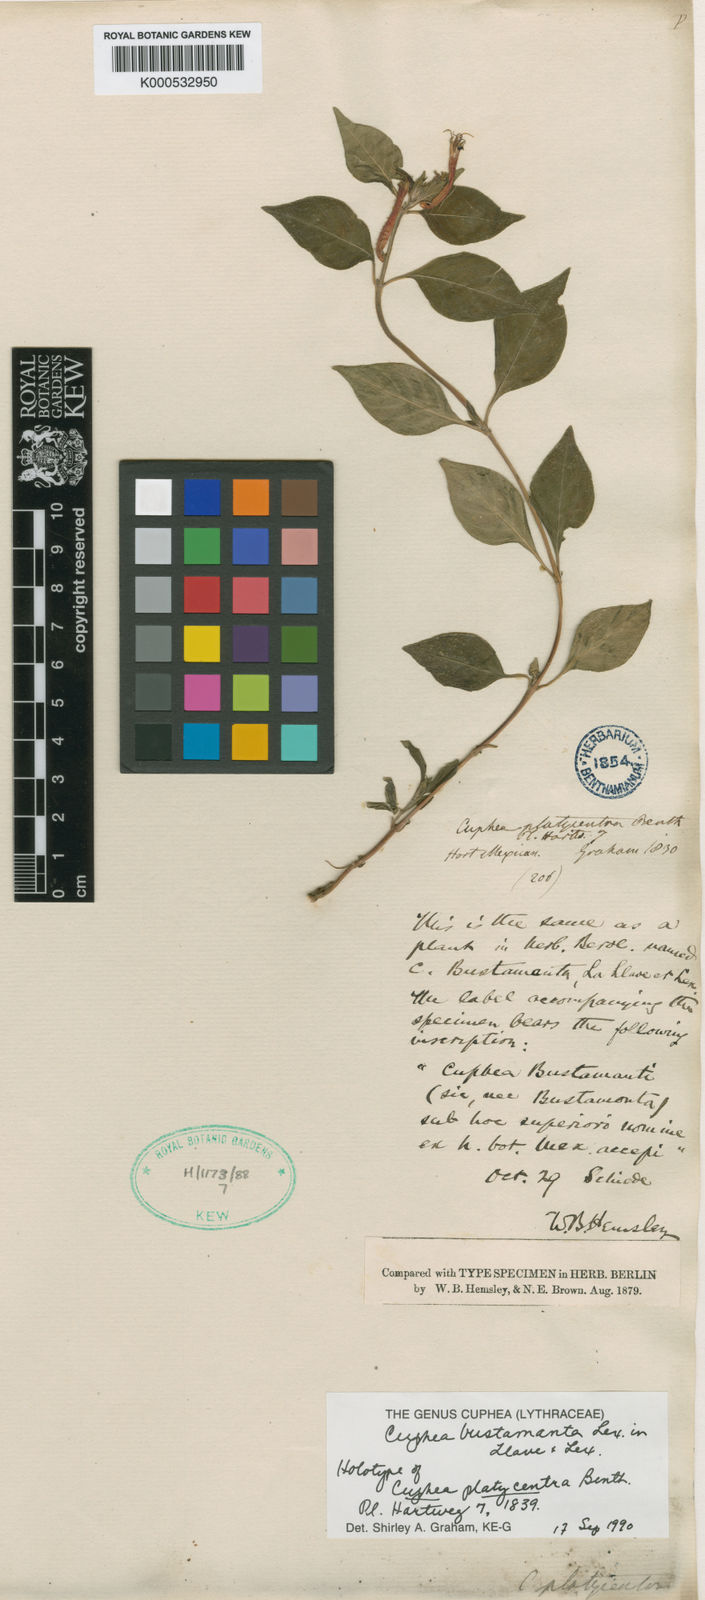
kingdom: Plantae
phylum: Tracheophyta
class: Magnoliopsida
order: Myrtales
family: Lythraceae
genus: Cuphea
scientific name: Cuphea bustamanta
